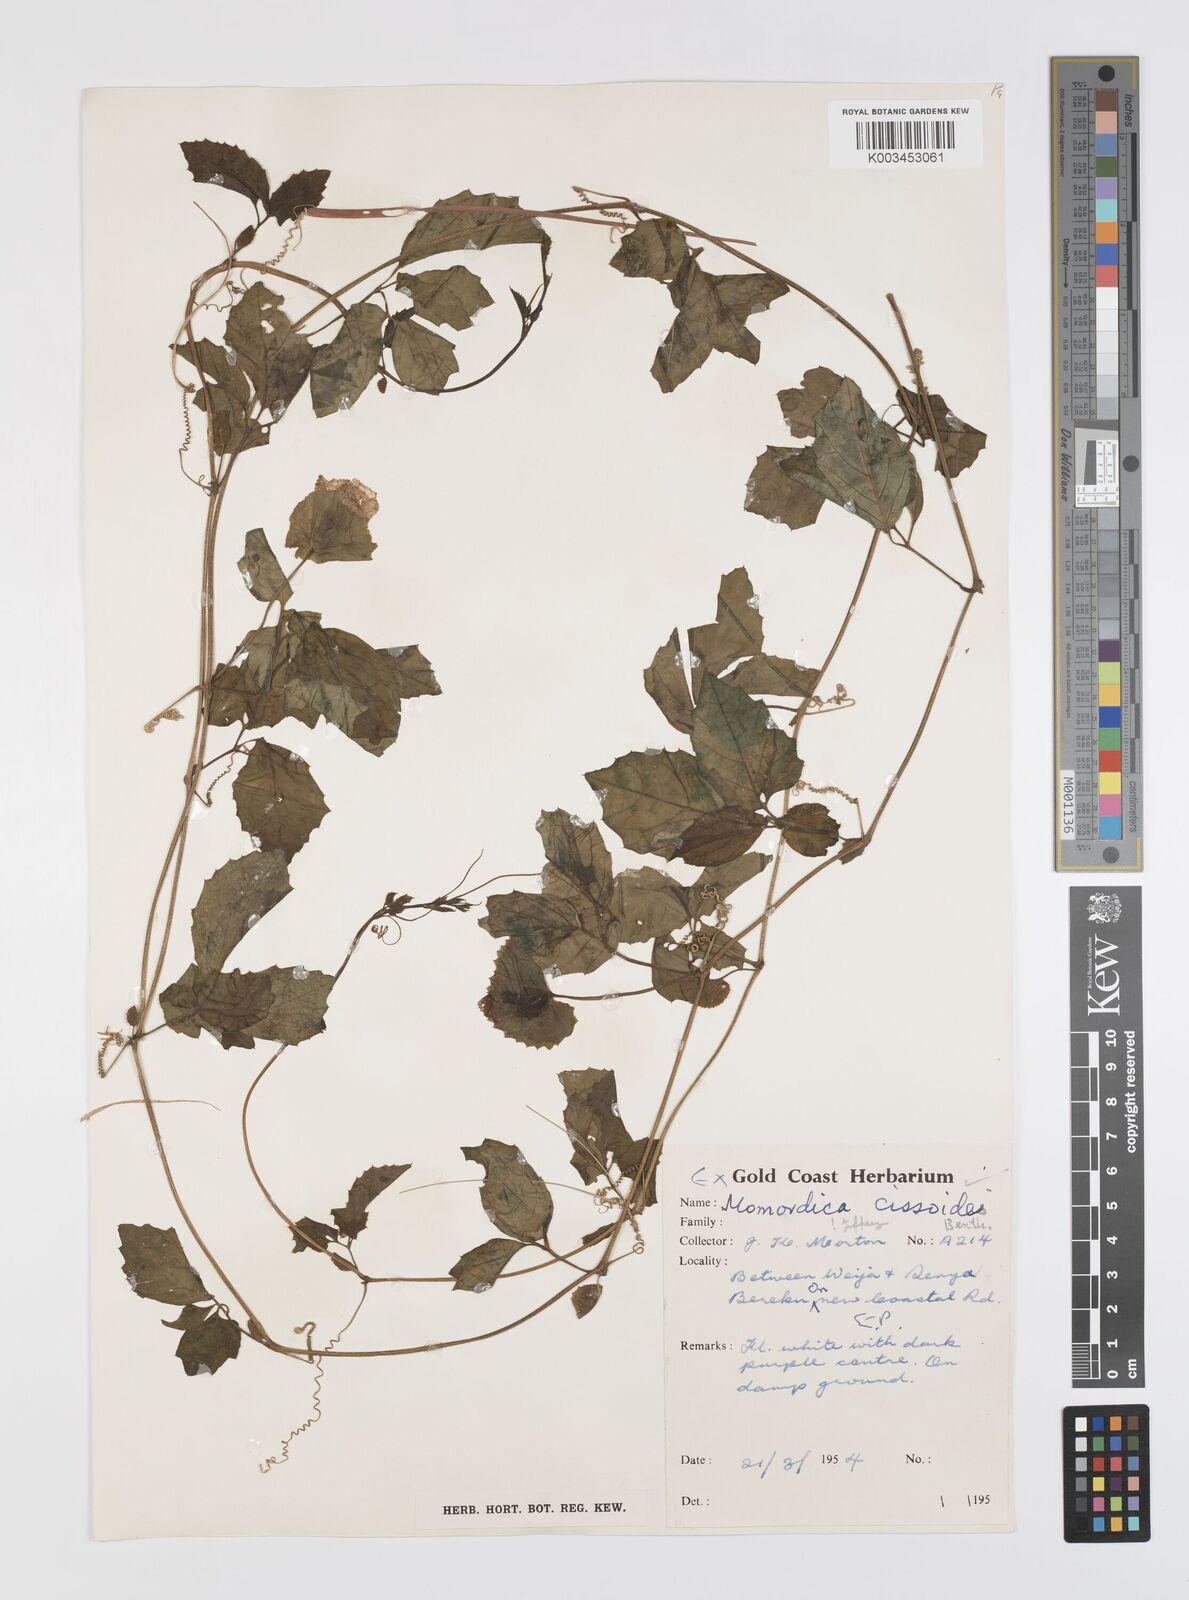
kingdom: Plantae
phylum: Tracheophyta
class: Magnoliopsida
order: Cucurbitales
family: Cucurbitaceae
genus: Momordica
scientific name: Momordica cissoides
